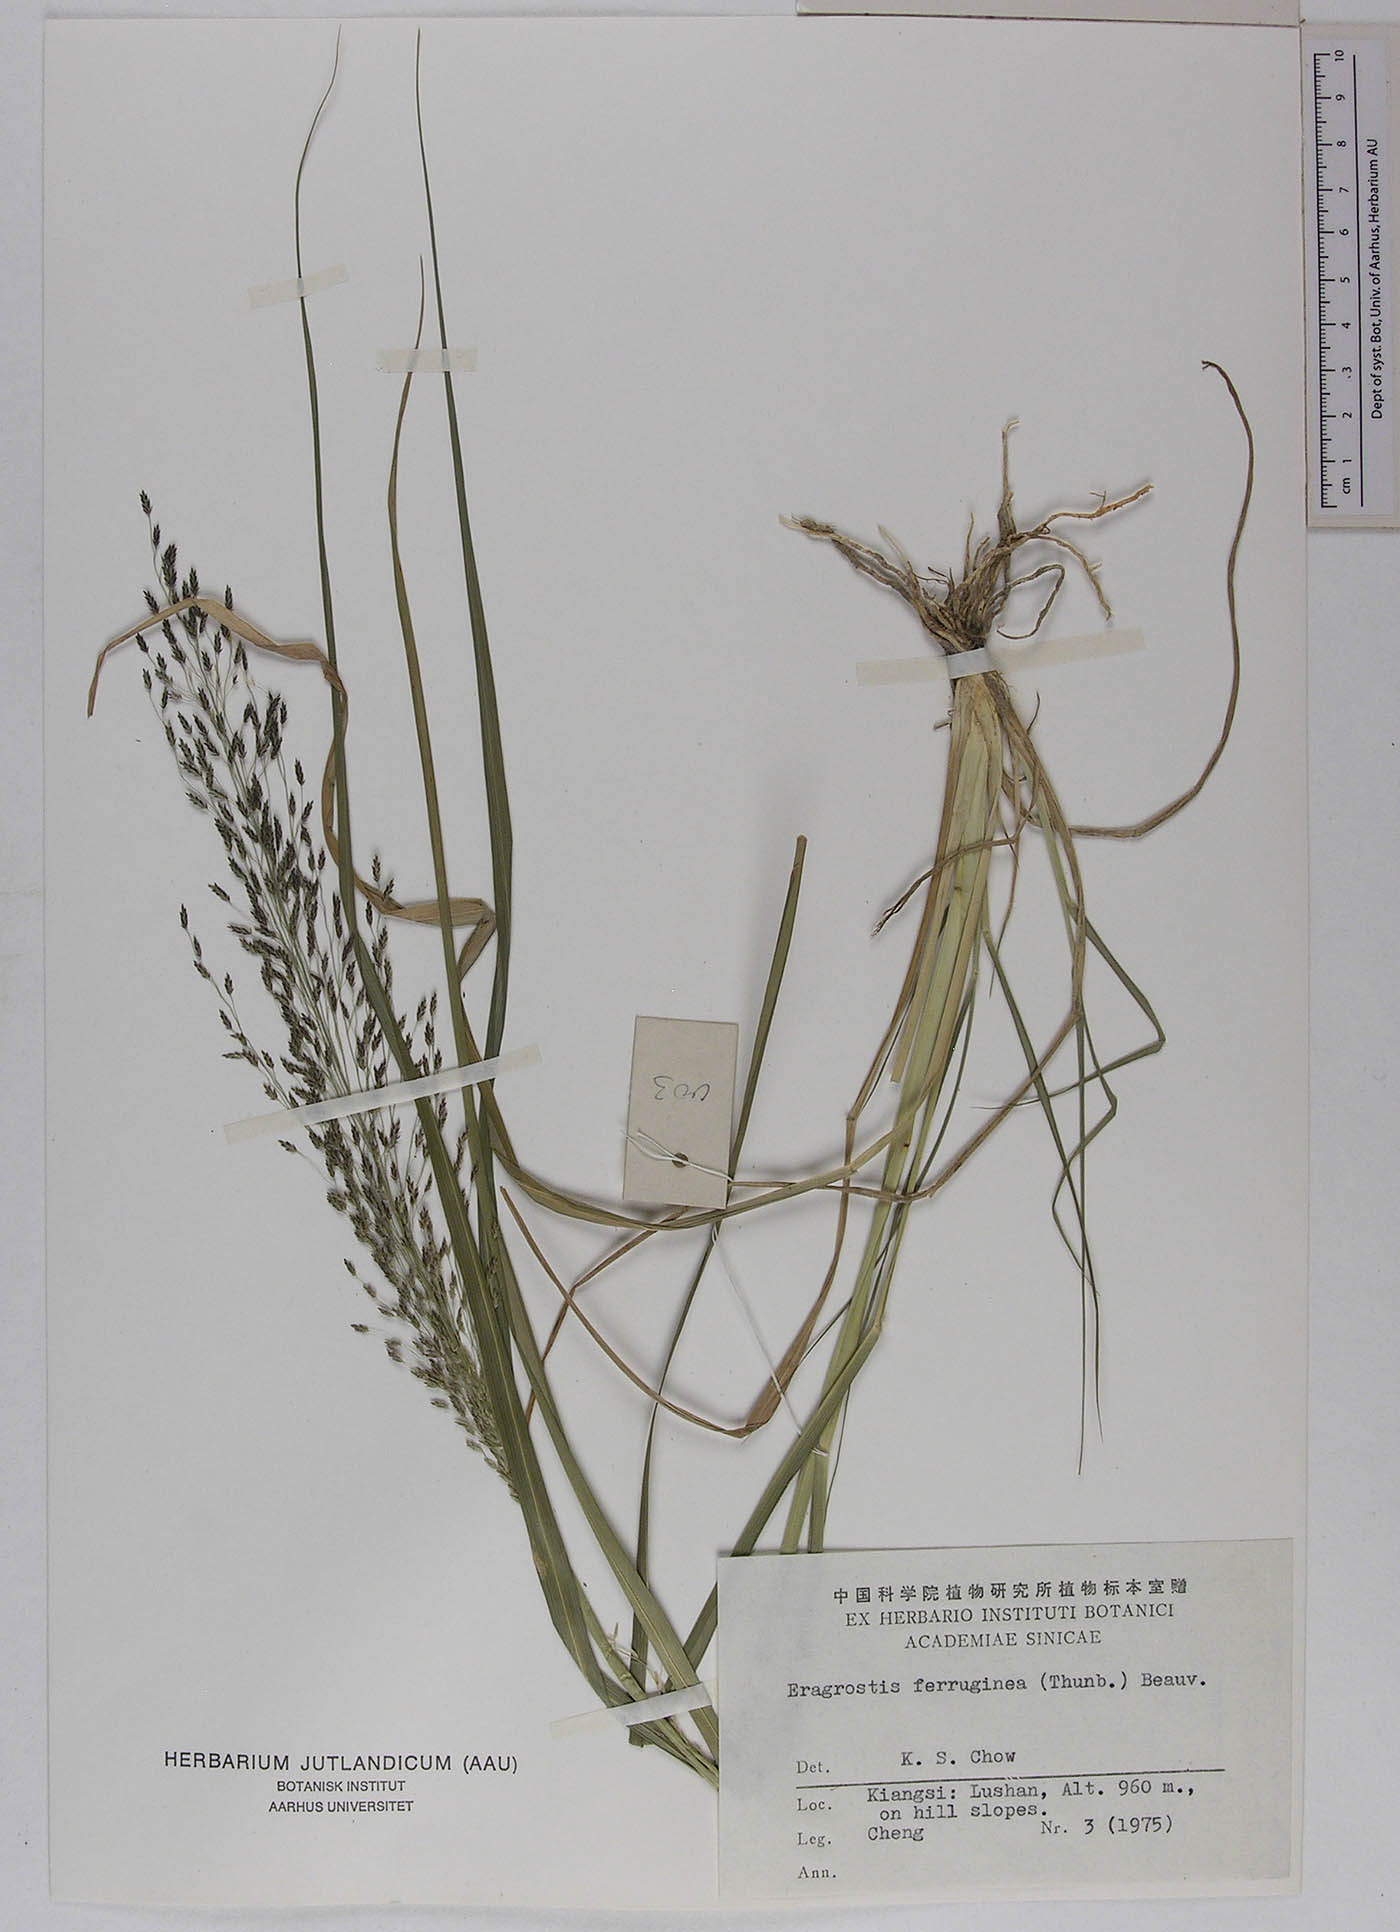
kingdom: Plantae
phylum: Tracheophyta
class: Liliopsida
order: Poales
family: Poaceae
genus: Eragrostis
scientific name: Eragrostis ferruginea
